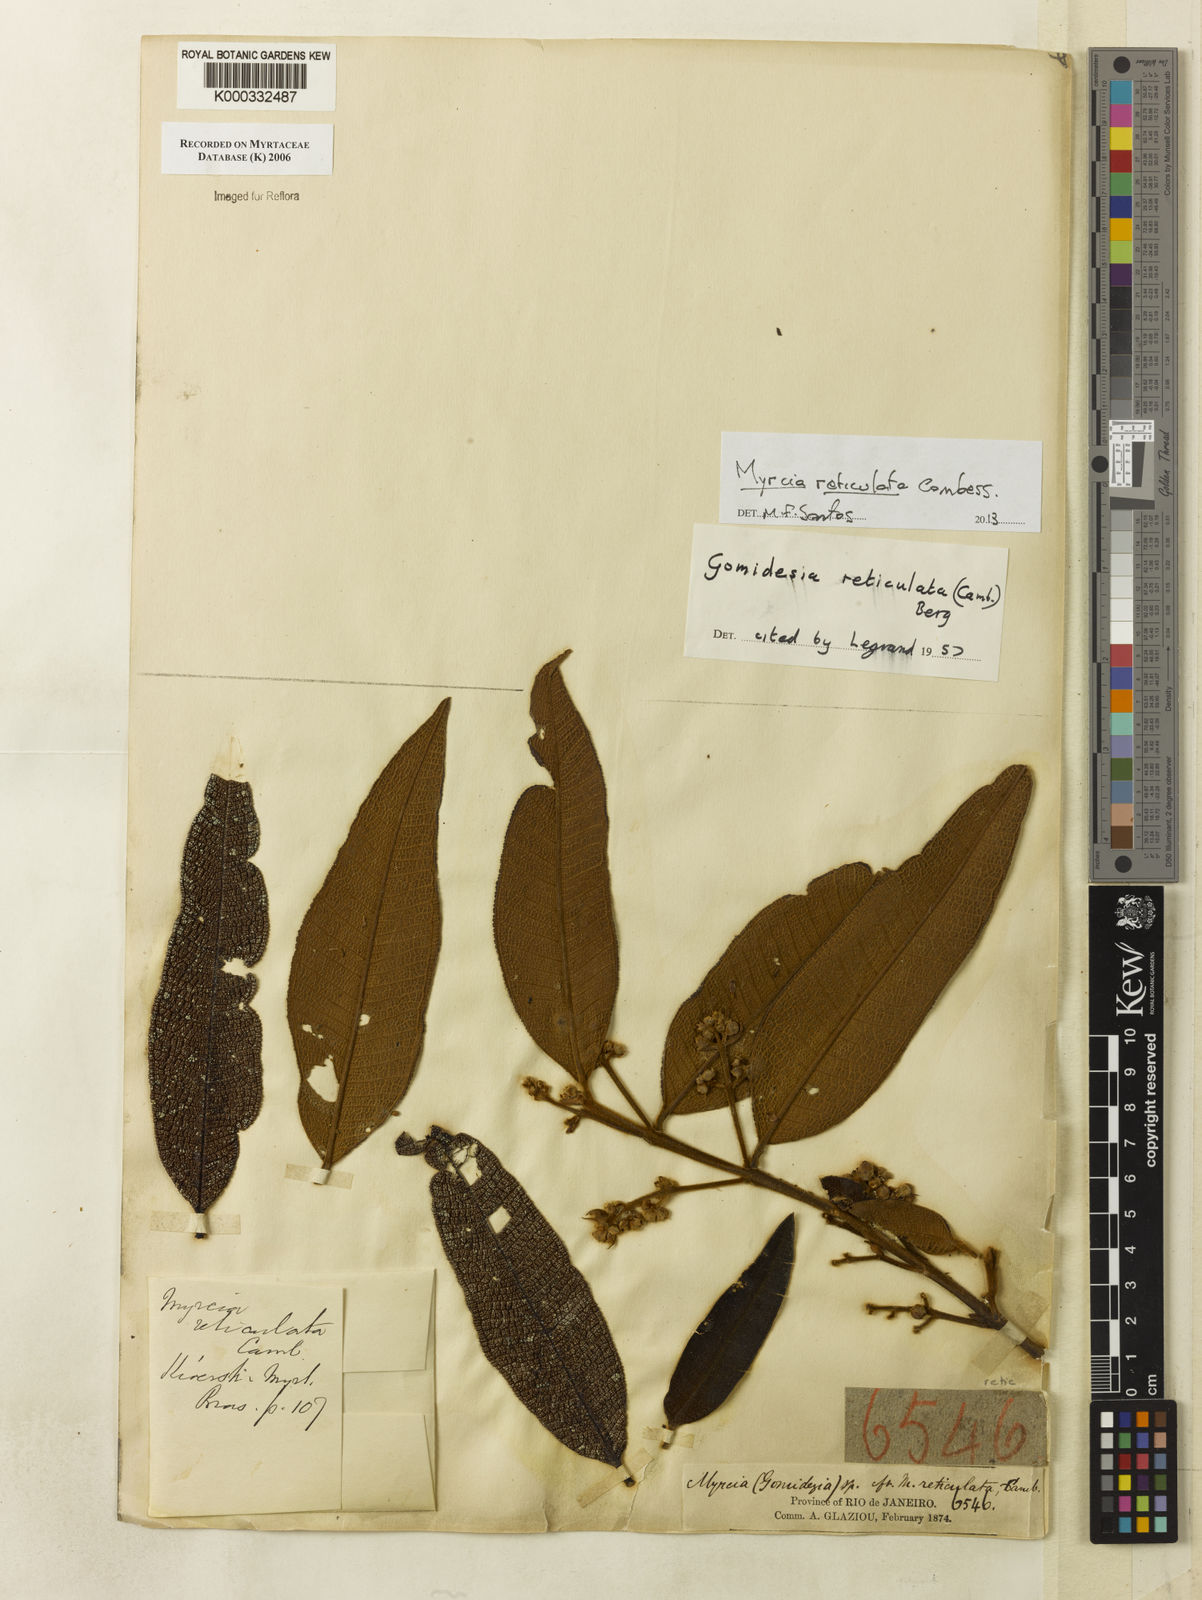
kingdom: Plantae
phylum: Tracheophyta
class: Magnoliopsida
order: Myrtales
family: Myrtaceae
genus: Myrcia
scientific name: Myrcia reticulata
